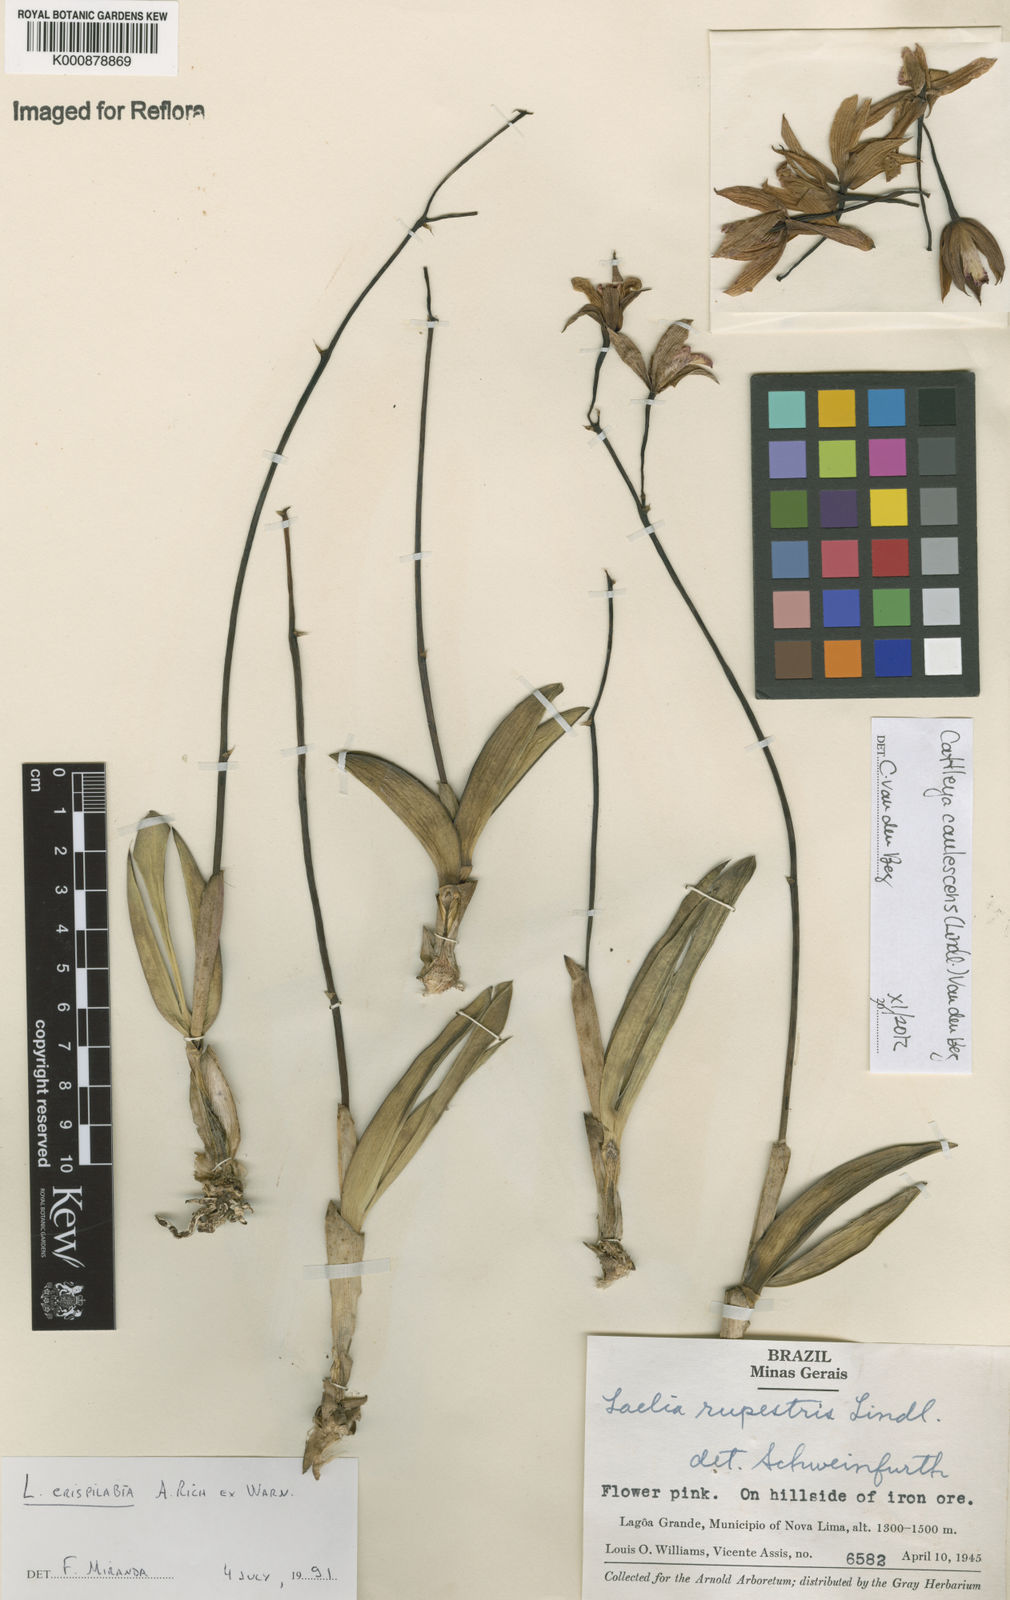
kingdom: Plantae
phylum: Tracheophyta
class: Liliopsida
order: Asparagales
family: Orchidaceae
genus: Cattleya
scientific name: Cattleya caulescens
